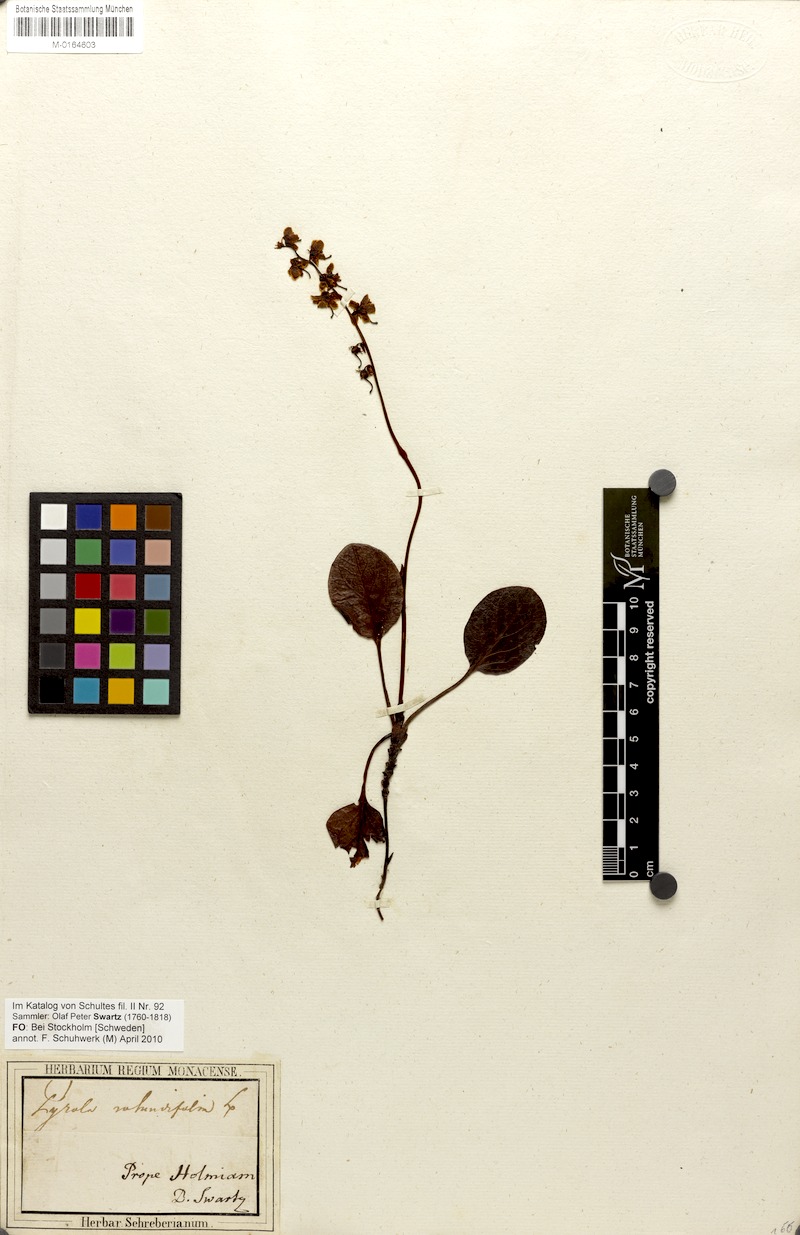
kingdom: Plantae
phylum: Tracheophyta
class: Magnoliopsida
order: Ericales
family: Ericaceae
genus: Pyrola
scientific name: Pyrola rotundifolia
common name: Round-leaved wintergreen
